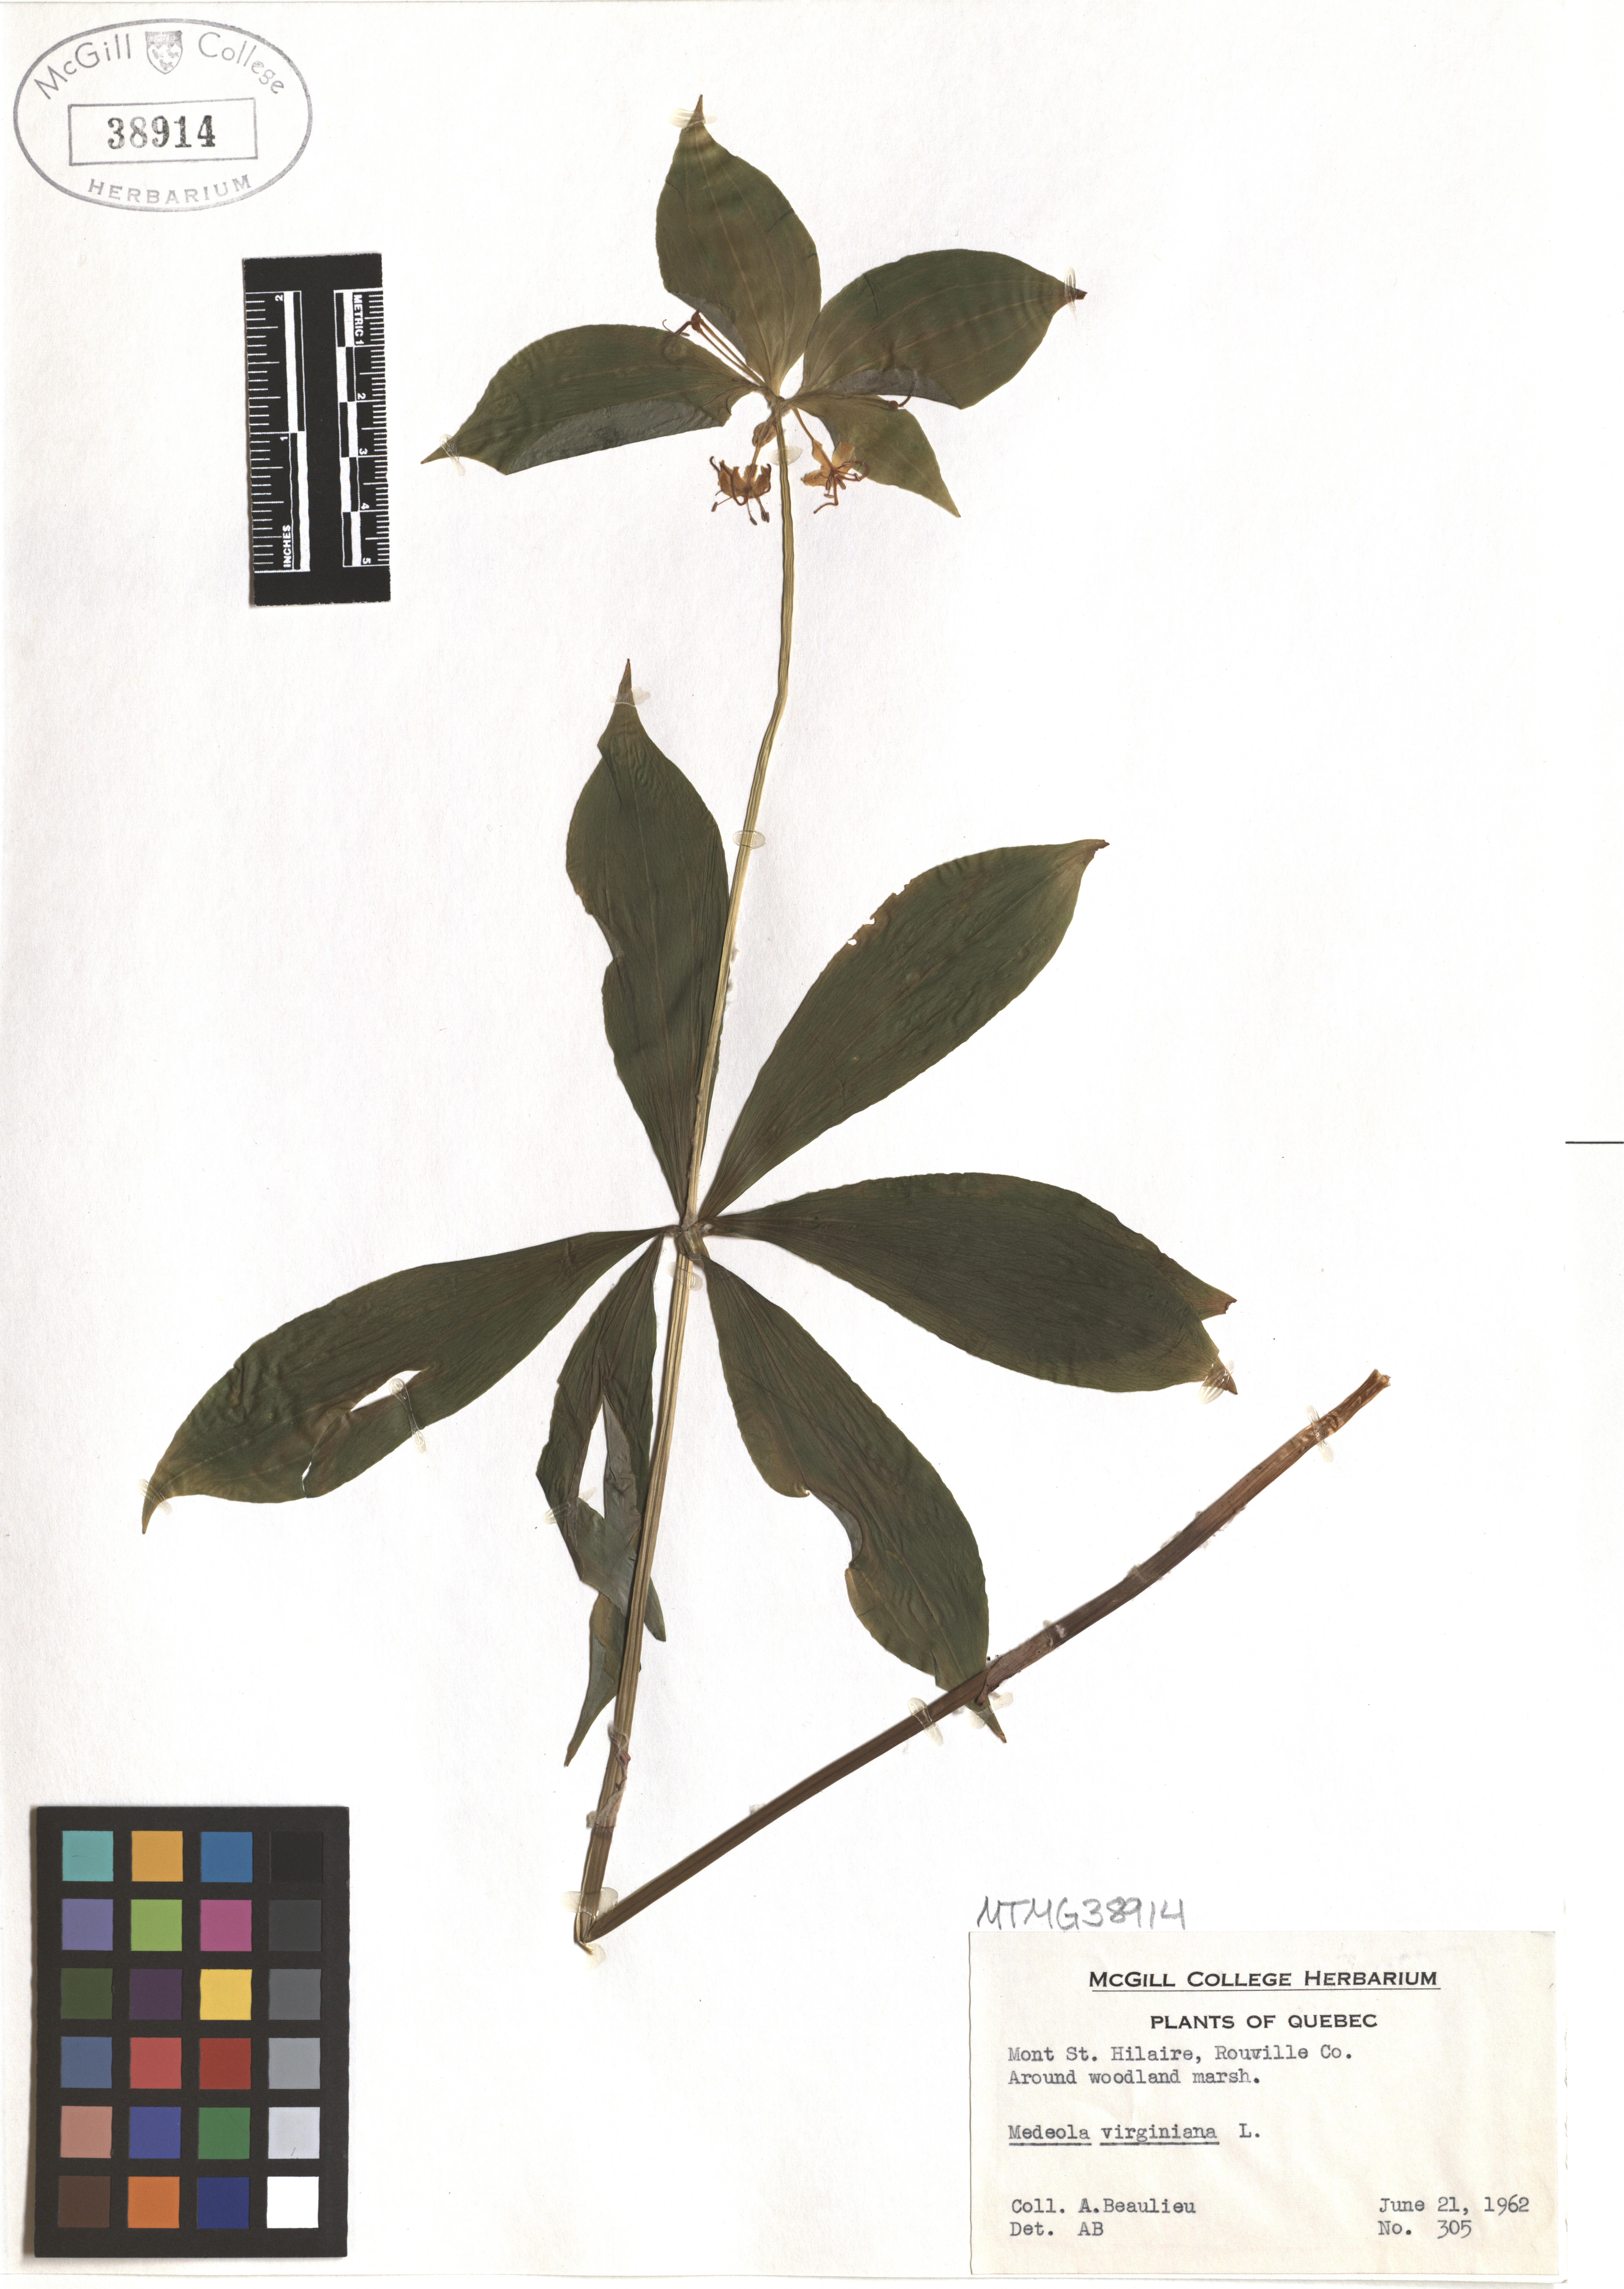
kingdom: Plantae
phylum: Tracheophyta
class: Liliopsida
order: Liliales
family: Liliaceae
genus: Medeola
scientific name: Medeola virginiana
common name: Indian cucumber-root
